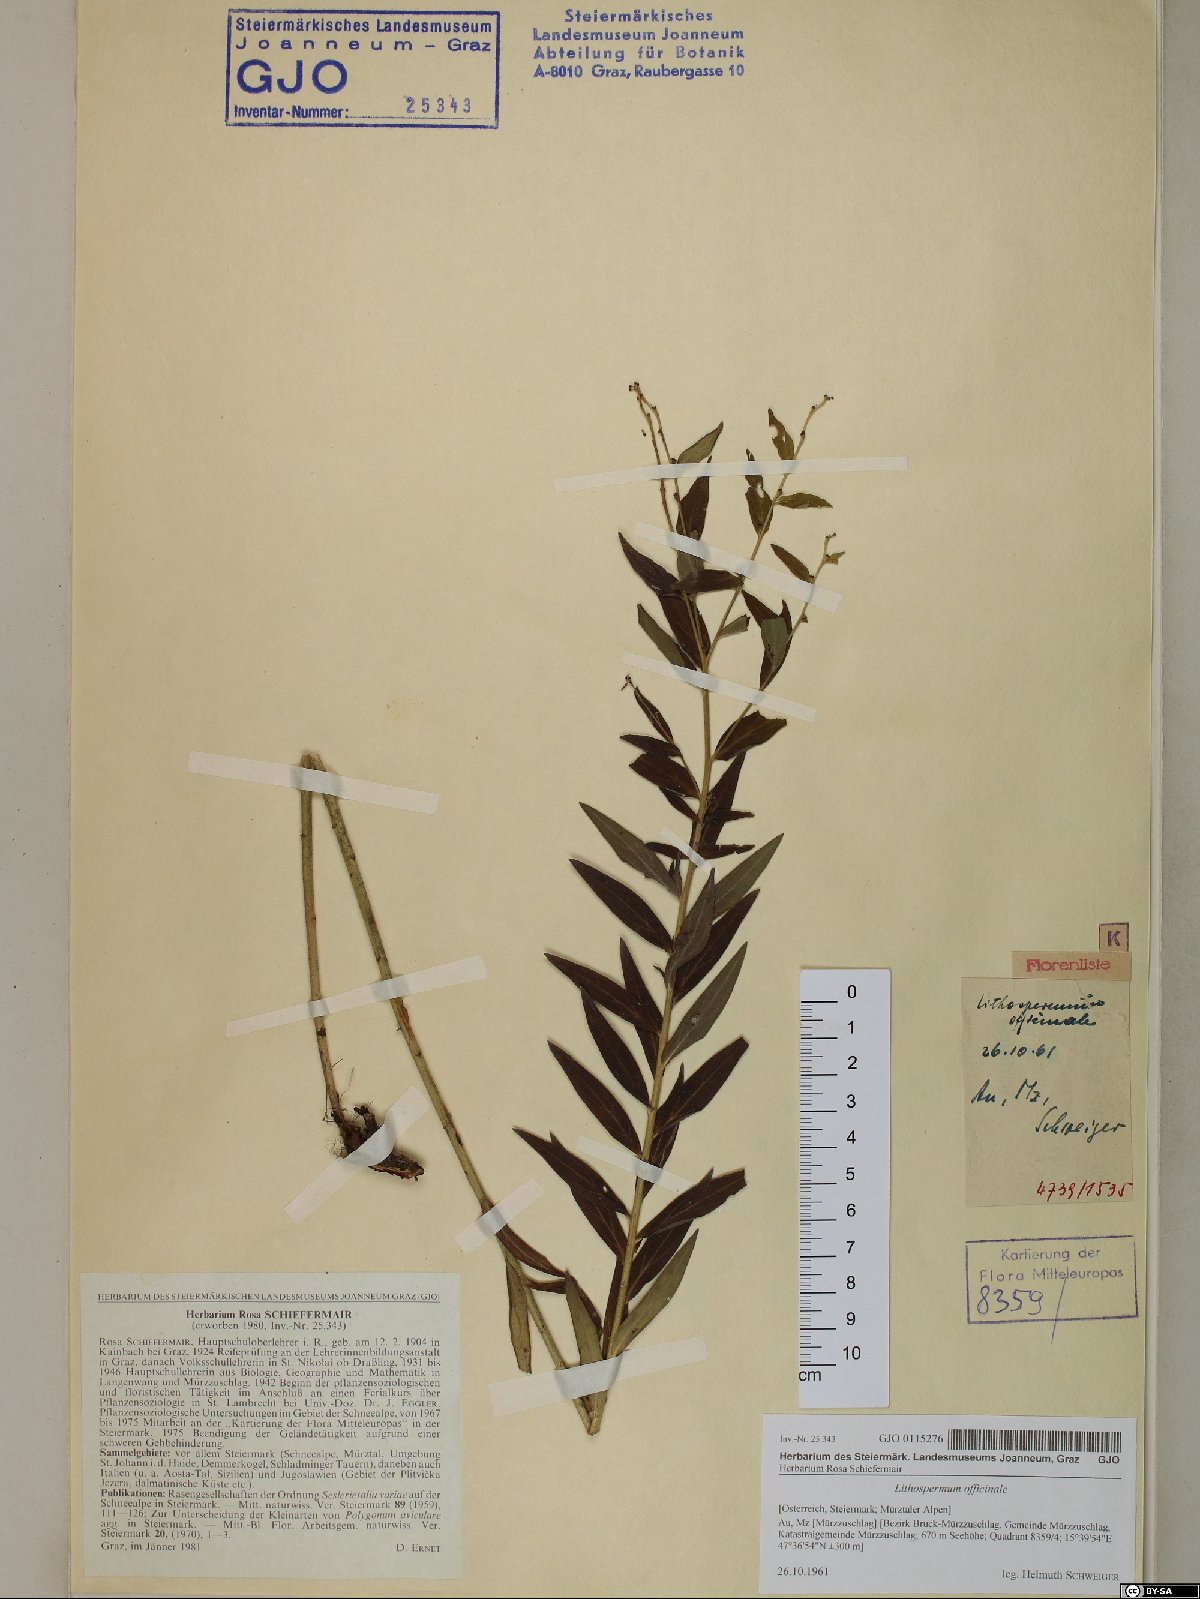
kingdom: Plantae
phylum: Tracheophyta
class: Magnoliopsida
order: Boraginales
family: Boraginaceae
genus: Lithospermum
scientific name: Lithospermum officinale
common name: Common gromwell
